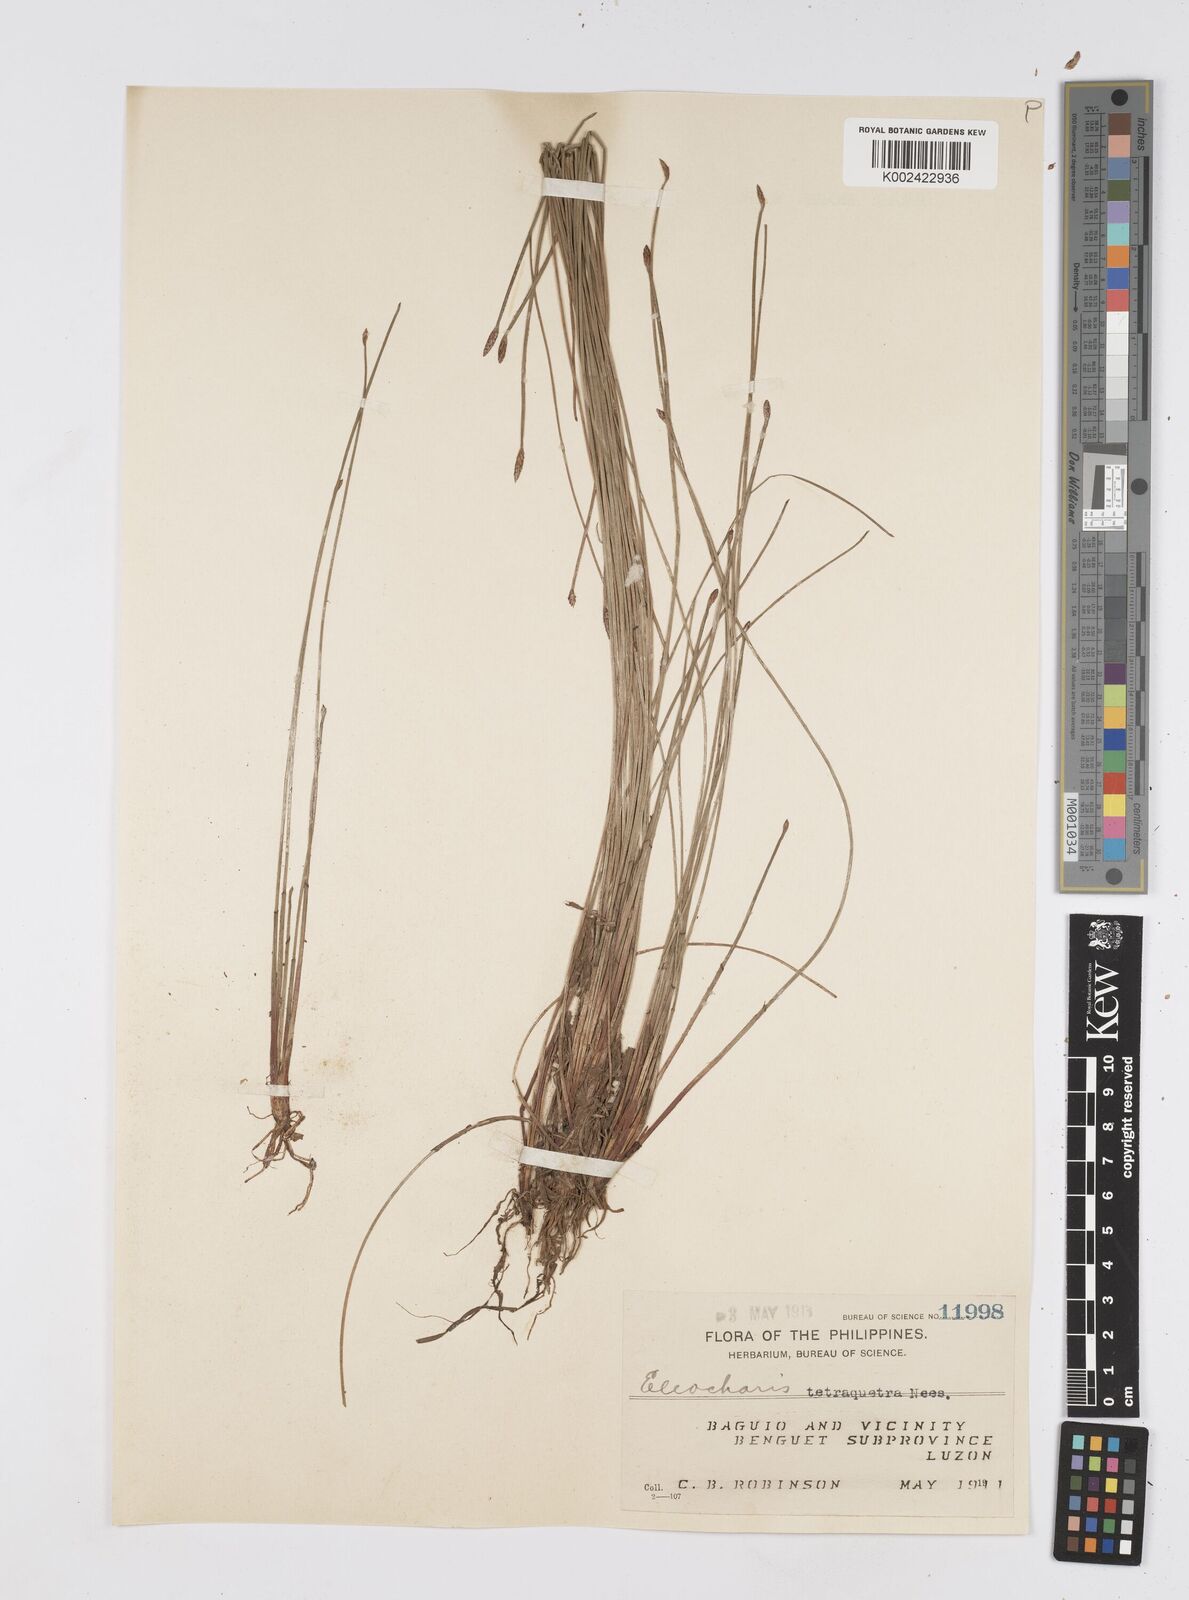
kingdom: Plantae
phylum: Tracheophyta
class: Liliopsida
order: Poales
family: Cyperaceae
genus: Eleocharis
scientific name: Eleocharis tetraquetra
